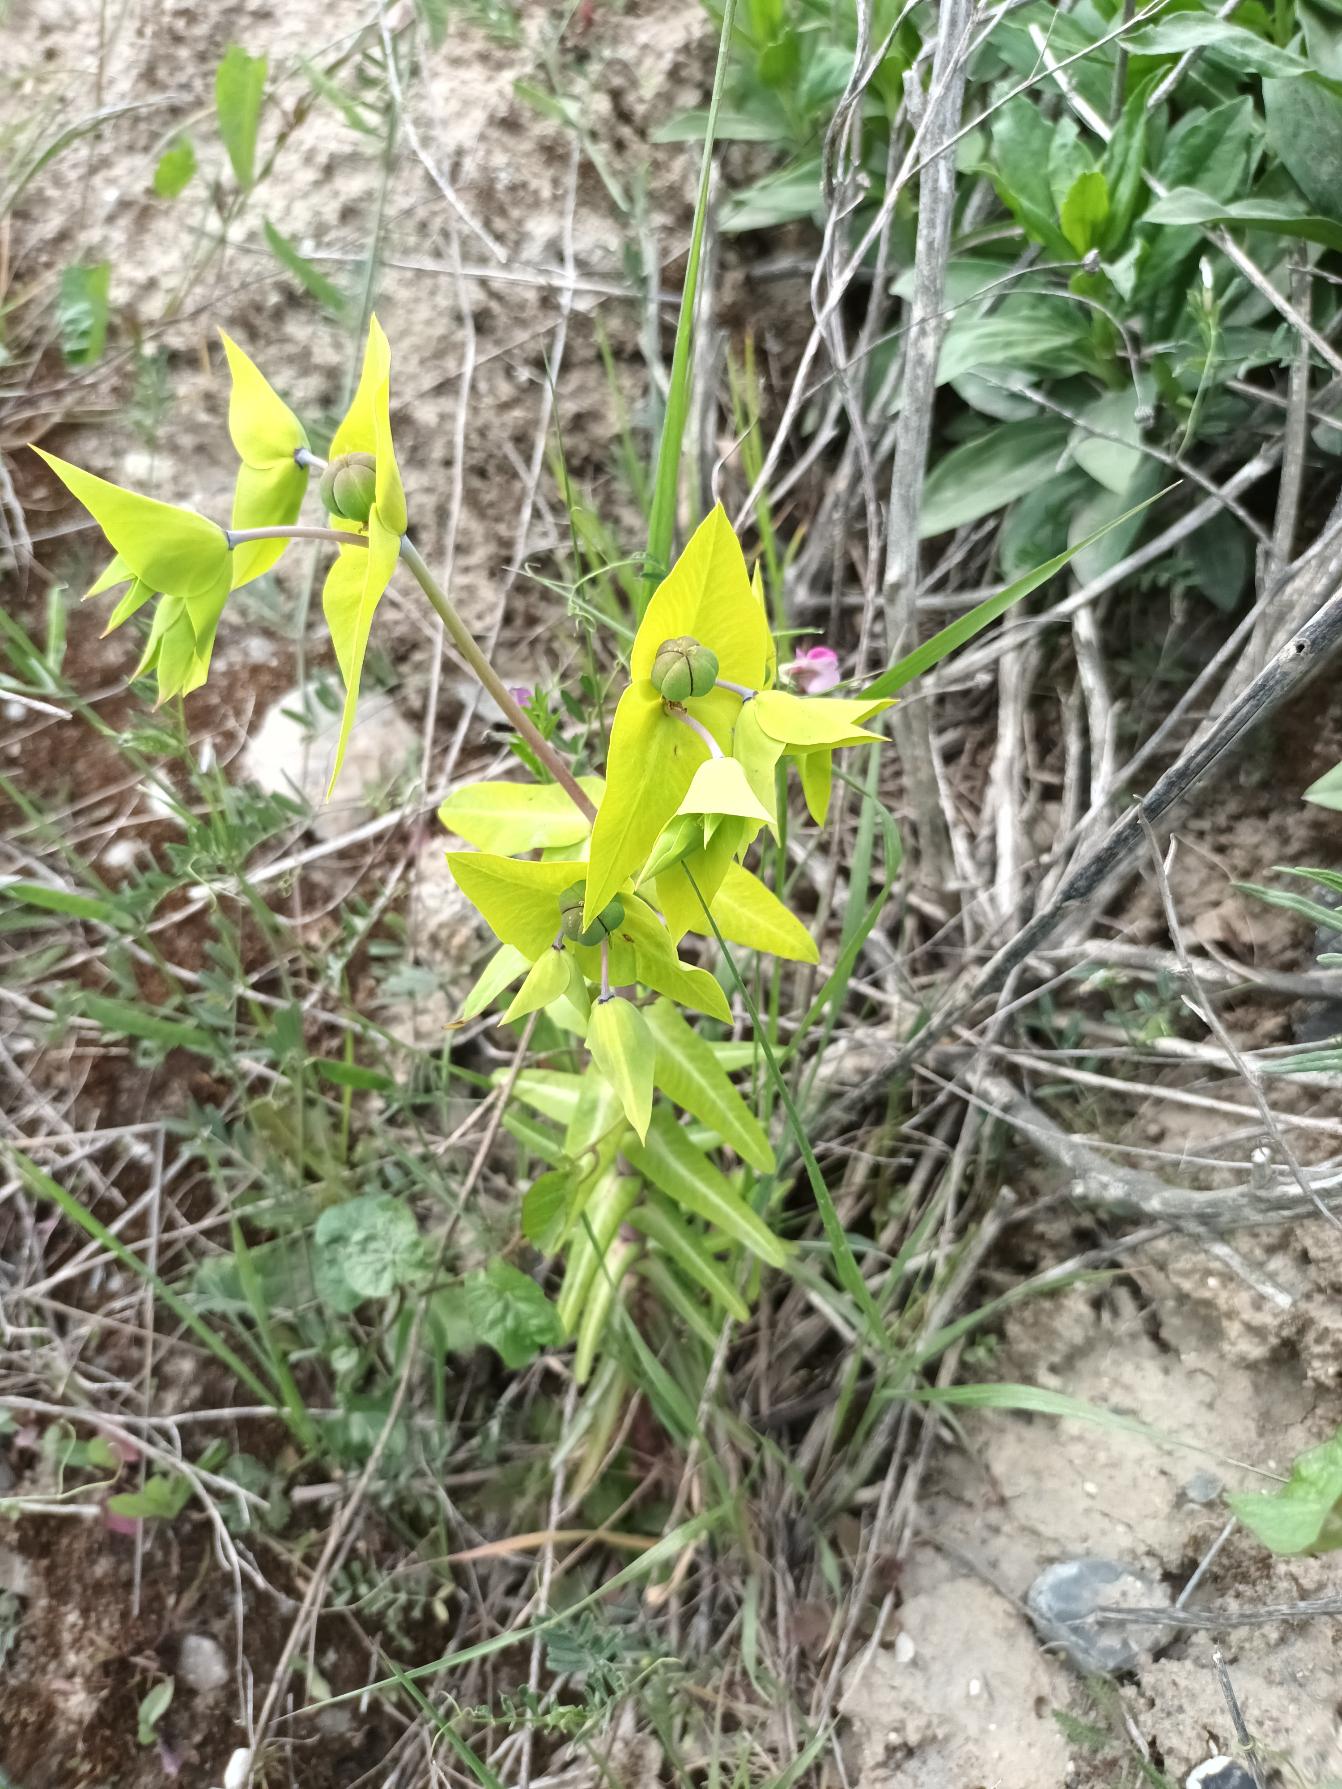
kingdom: Plantae
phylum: Tracheophyta
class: Magnoliopsida
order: Malpighiales
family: Euphorbiaceae
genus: Euphorbia
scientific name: Euphorbia lathyris
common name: Kors-vortemælk
